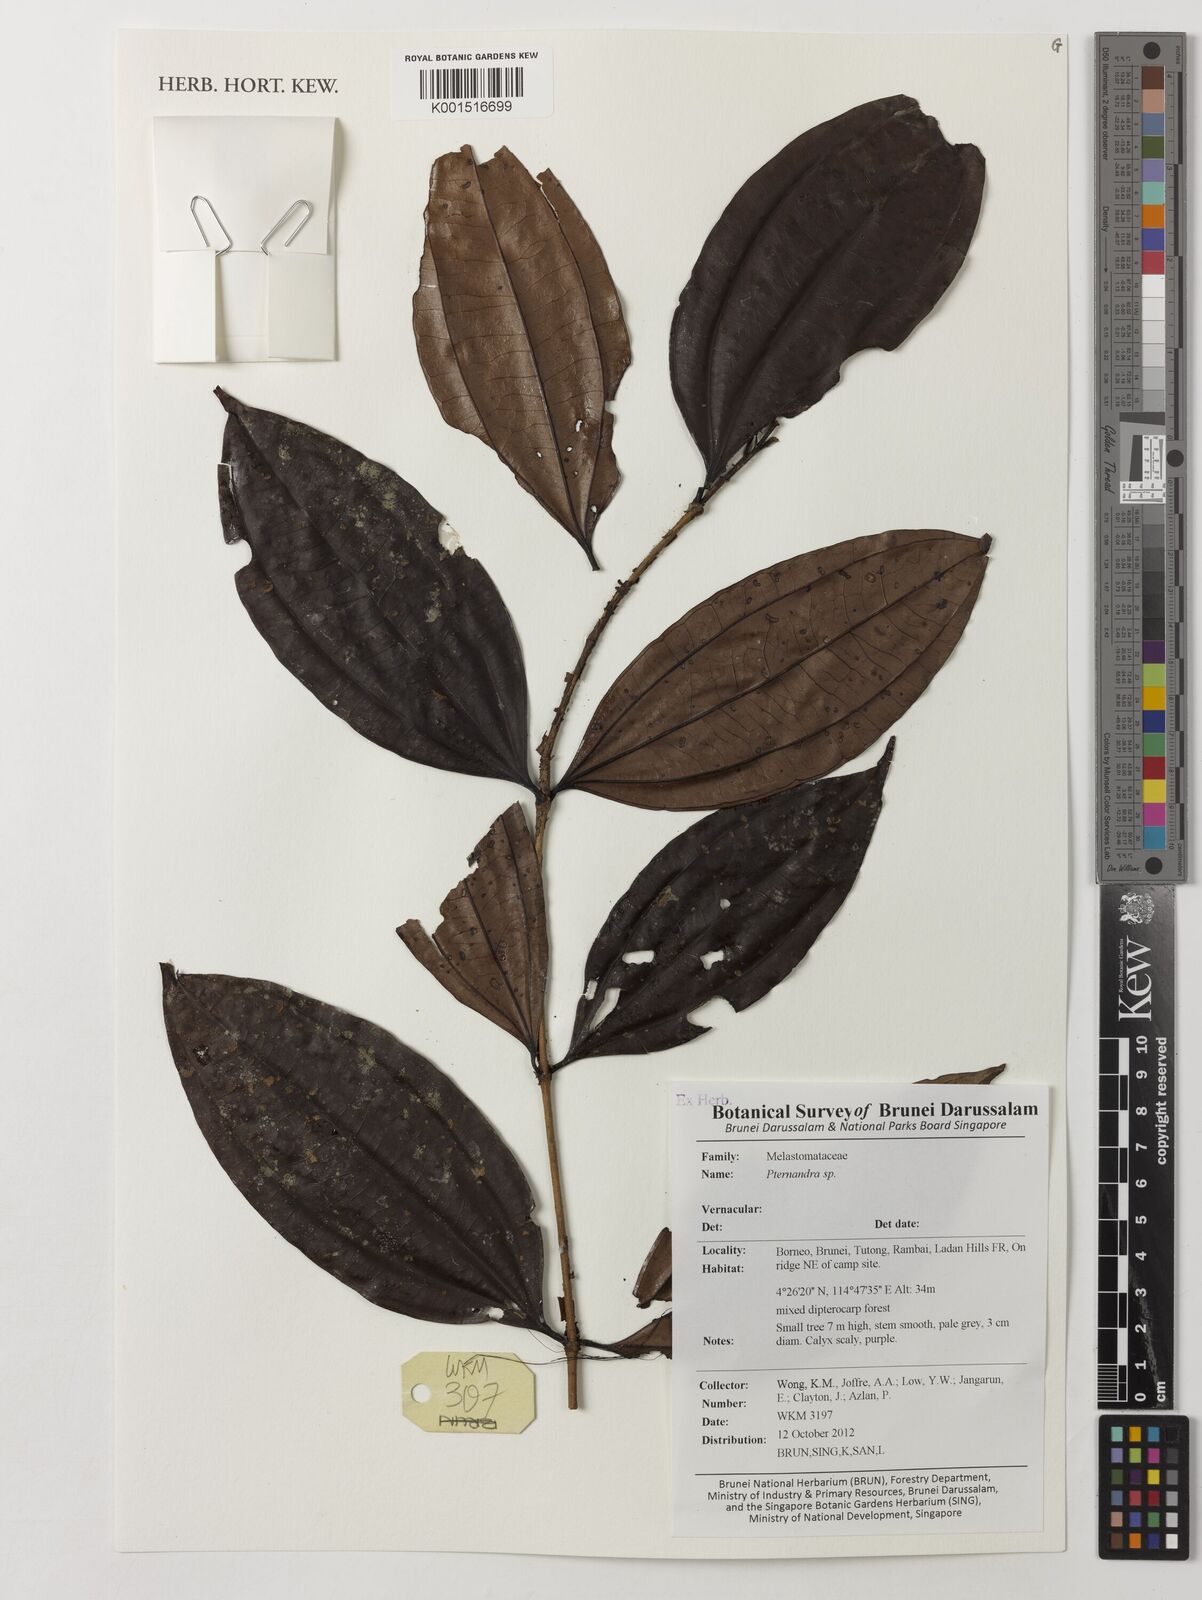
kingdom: Plantae
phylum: Tracheophyta
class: Magnoliopsida
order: Myrtales
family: Melastomataceae
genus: Pternandra
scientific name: Pternandra
